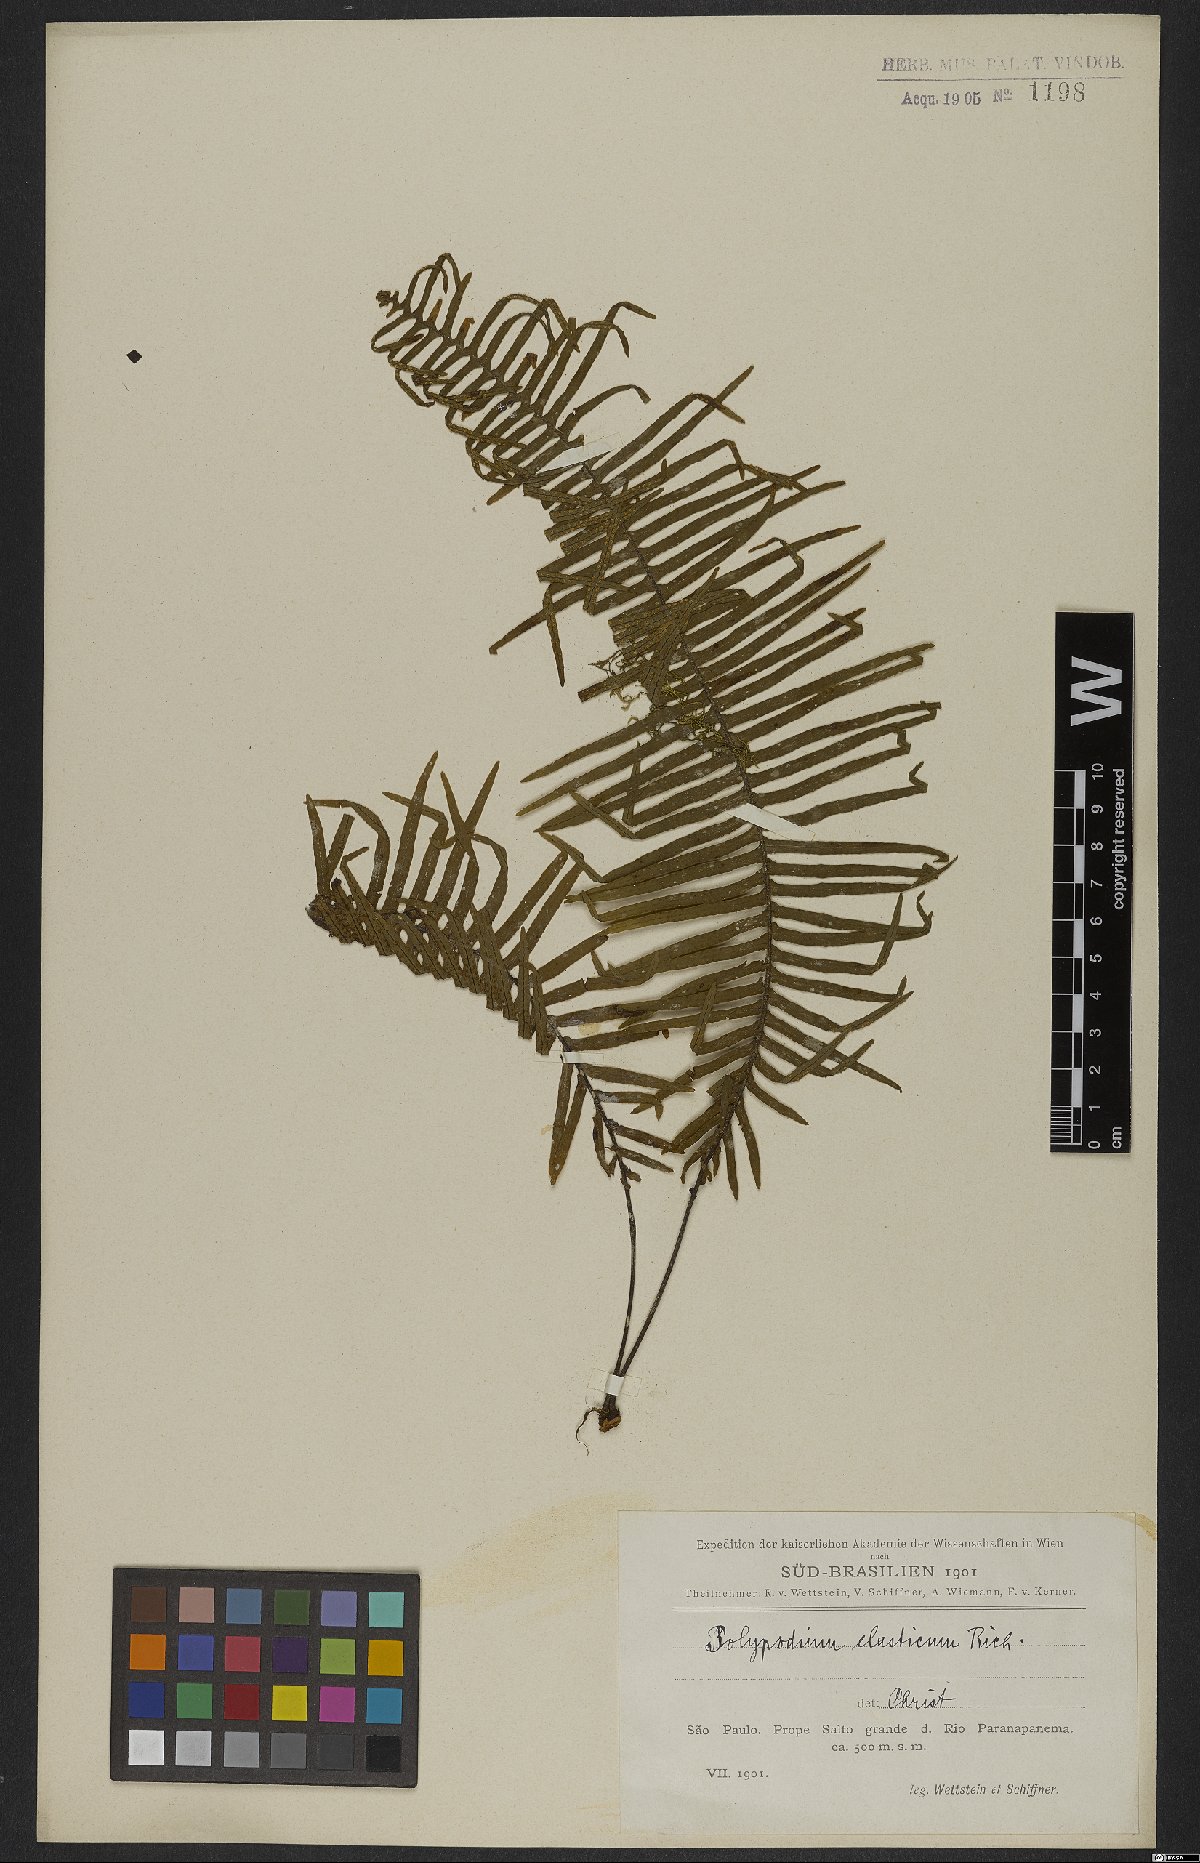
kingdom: Plantae
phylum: Tracheophyta
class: Polypodiopsida
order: Polypodiales
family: Polypodiaceae
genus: Pecluma
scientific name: Pecluma plumula
